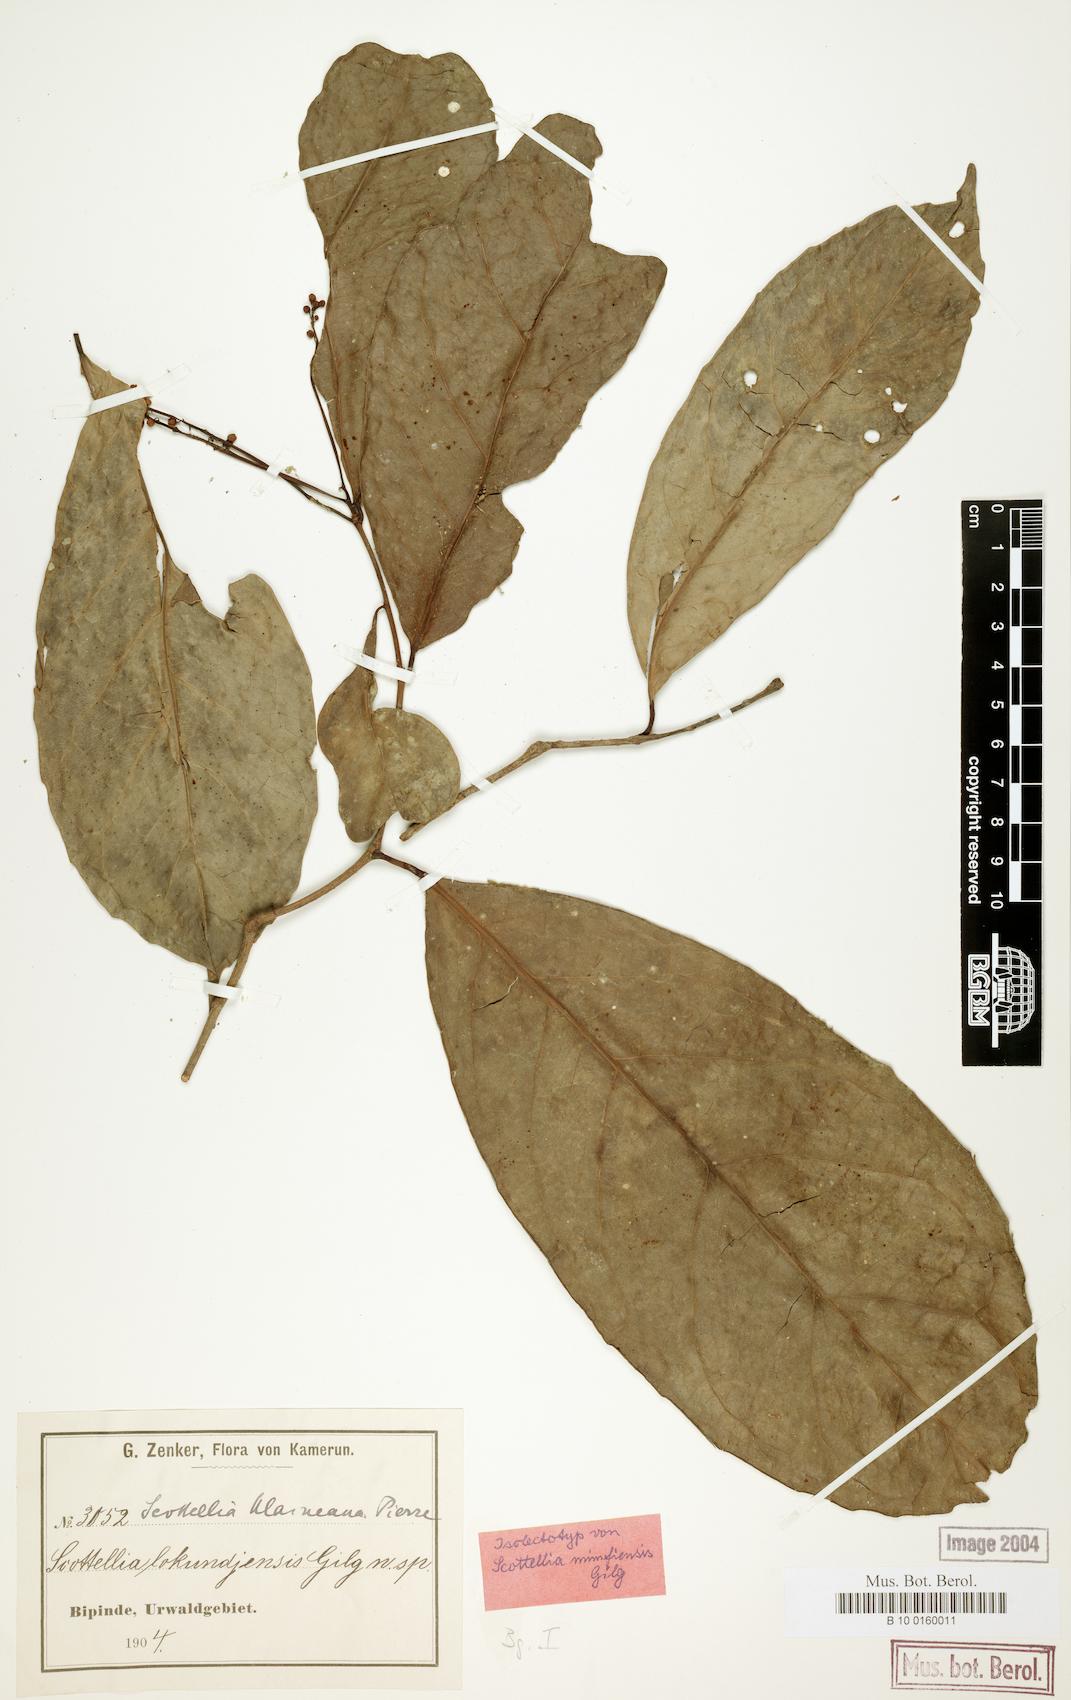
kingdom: Plantae
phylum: Tracheophyta
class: Magnoliopsida
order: Malpighiales
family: Achariaceae
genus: Scottellia
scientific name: Scottellia klaineana
